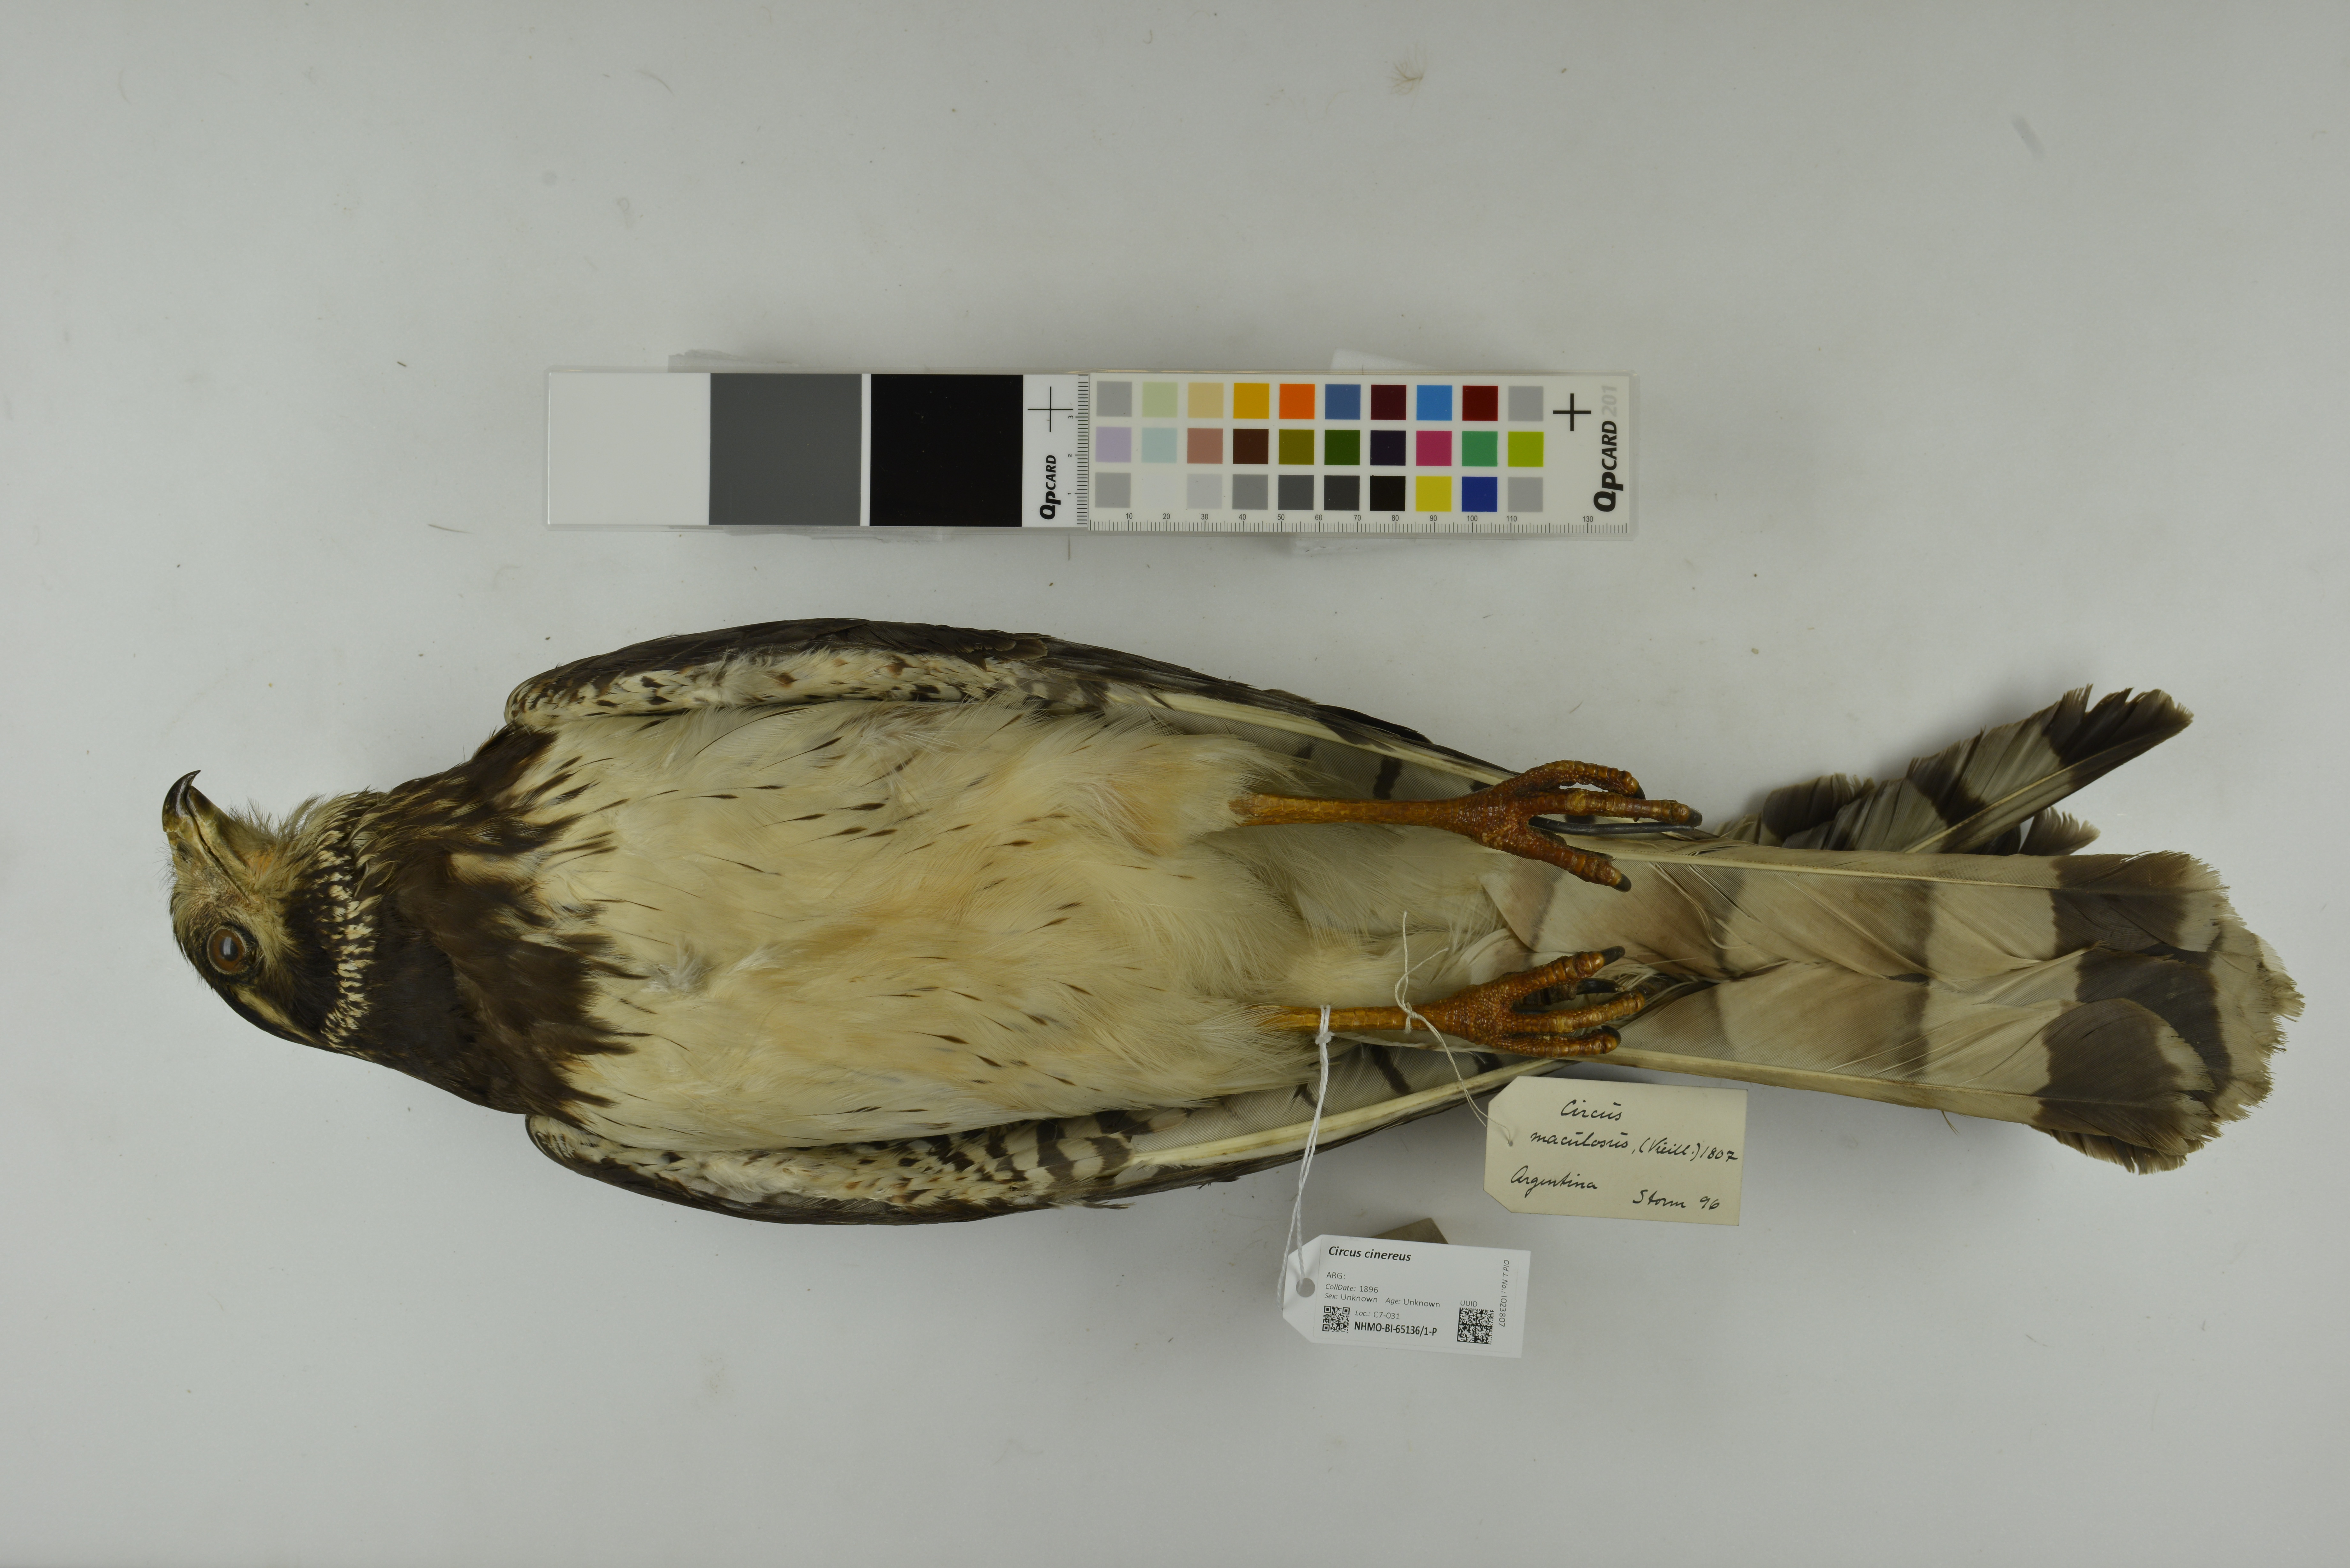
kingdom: Animalia
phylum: Chordata
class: Aves
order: Accipitriformes
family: Accipitridae
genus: Circus
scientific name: Circus cinereus
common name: Cinereous harrier
